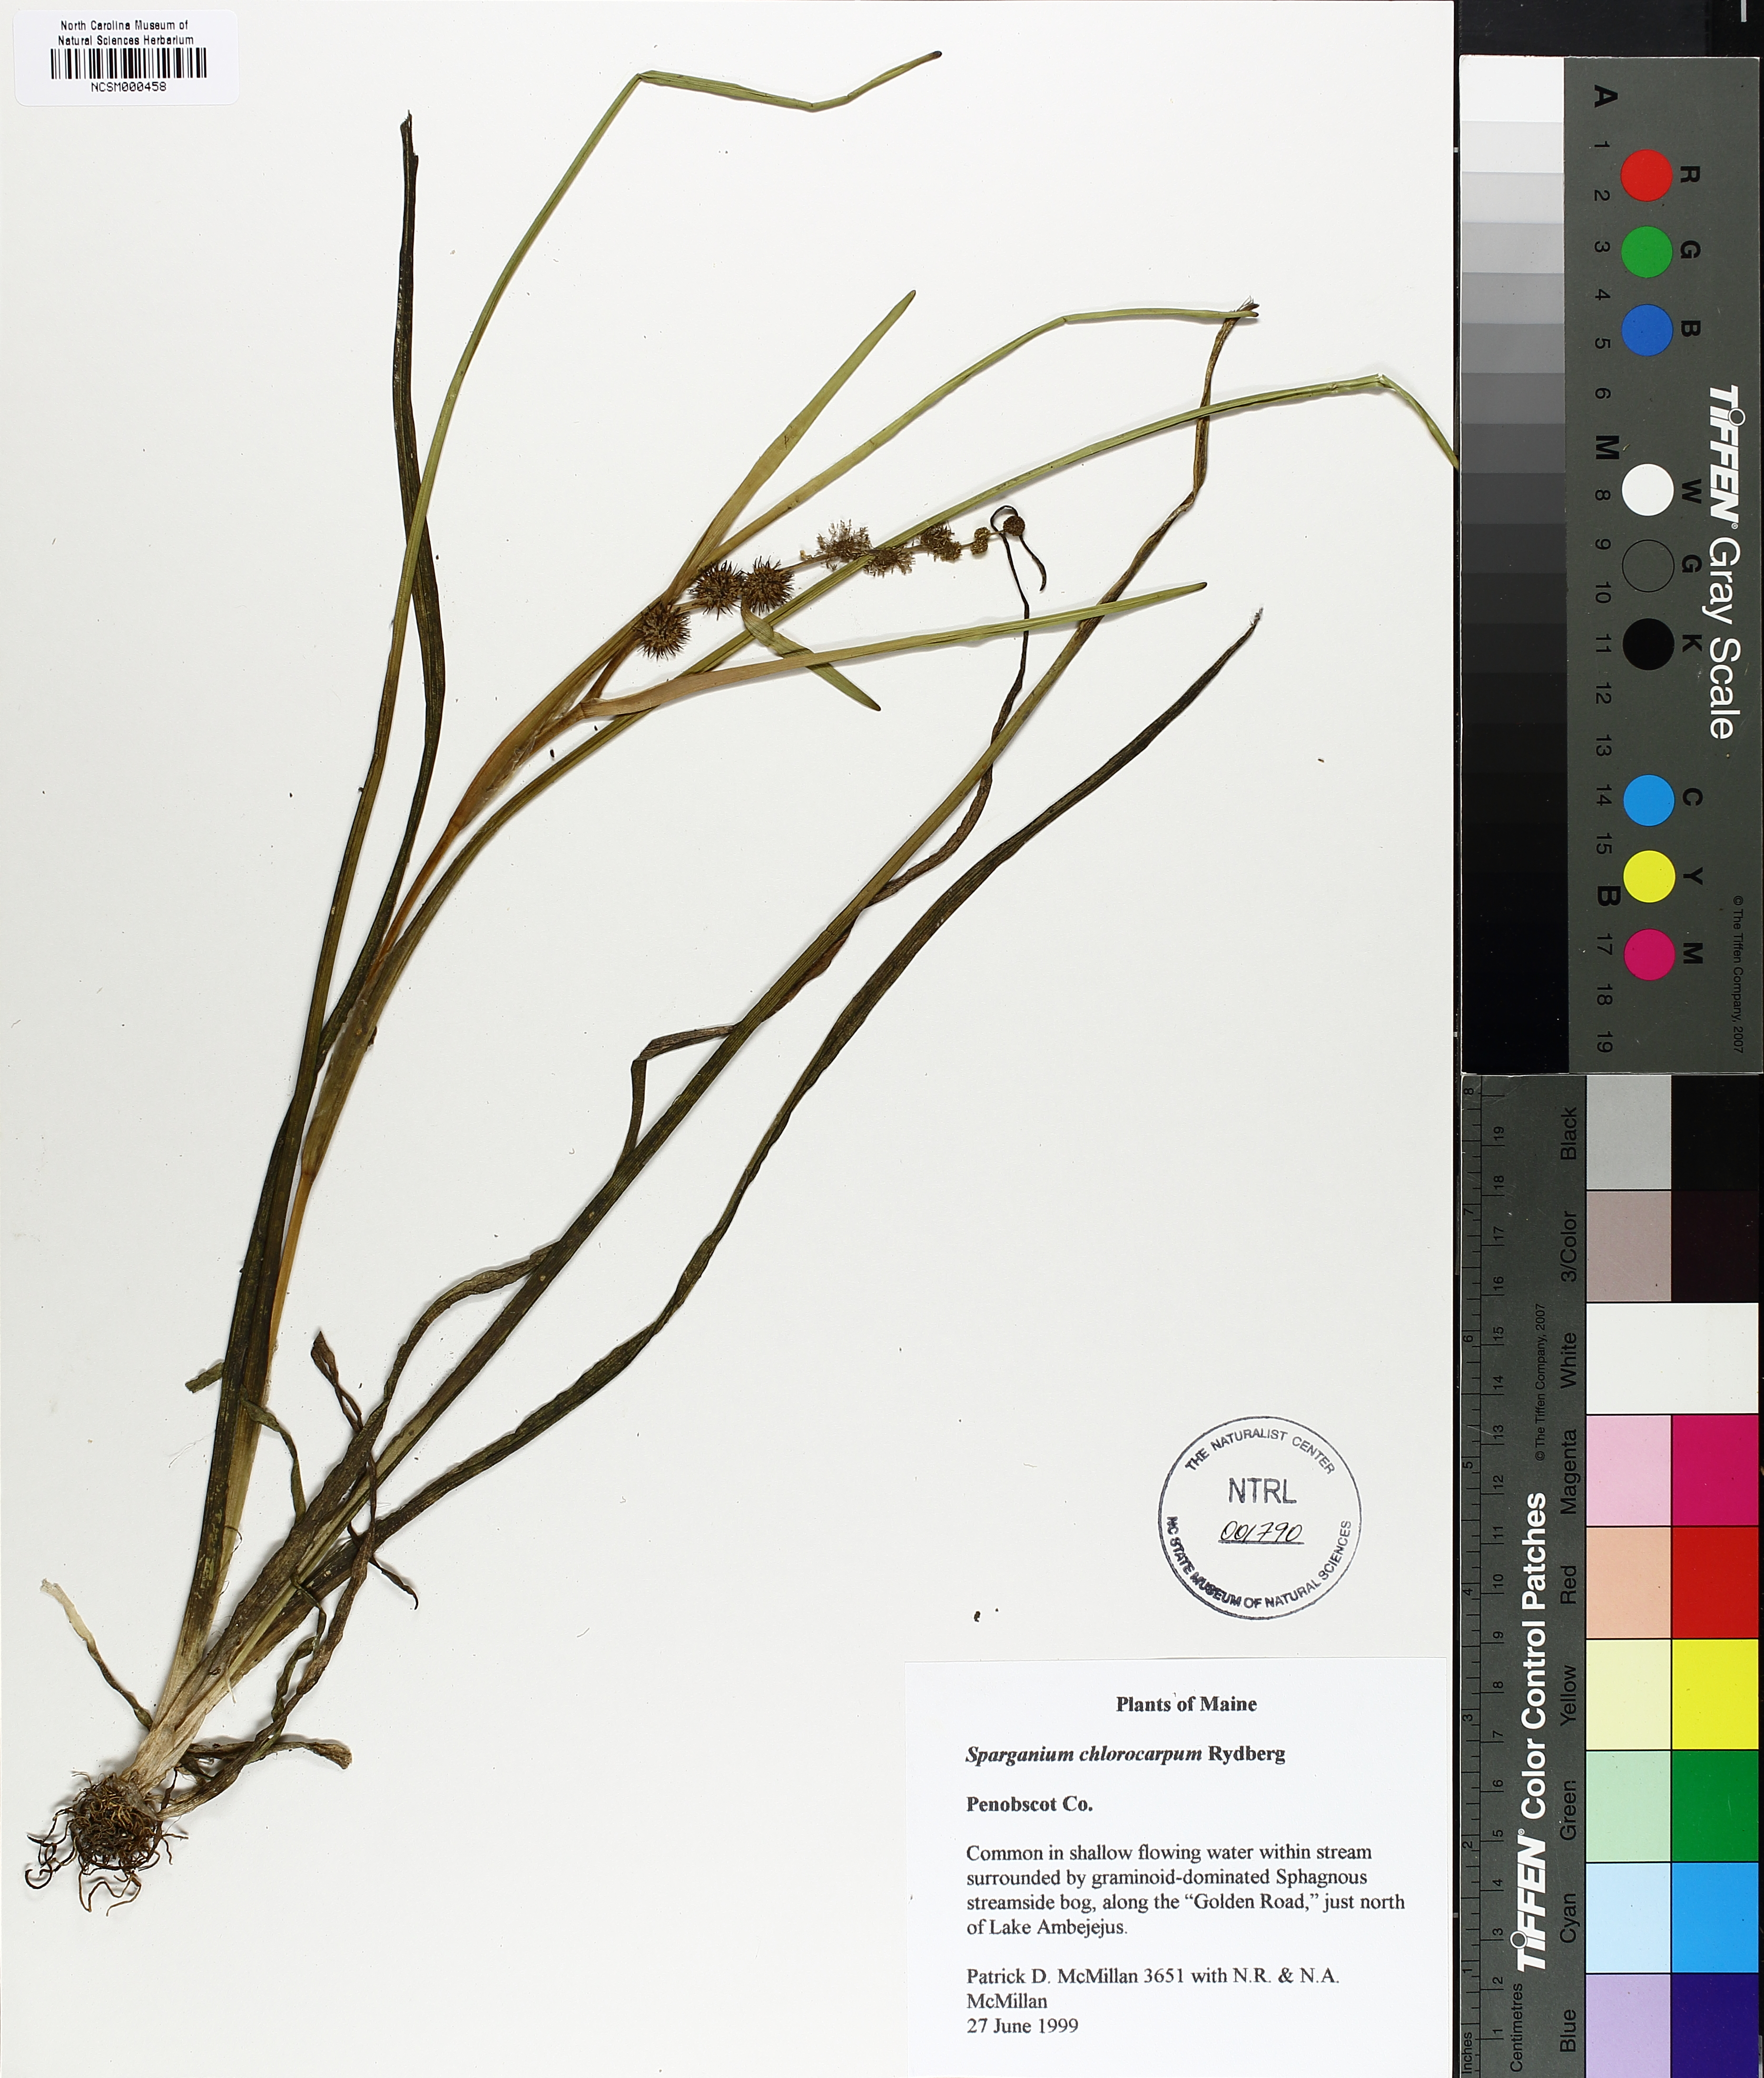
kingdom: Plantae
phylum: Tracheophyta
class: Liliopsida
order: Poales
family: Typhaceae
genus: Sparganium
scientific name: Sparganium emersum
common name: Unbranched bur-reed
